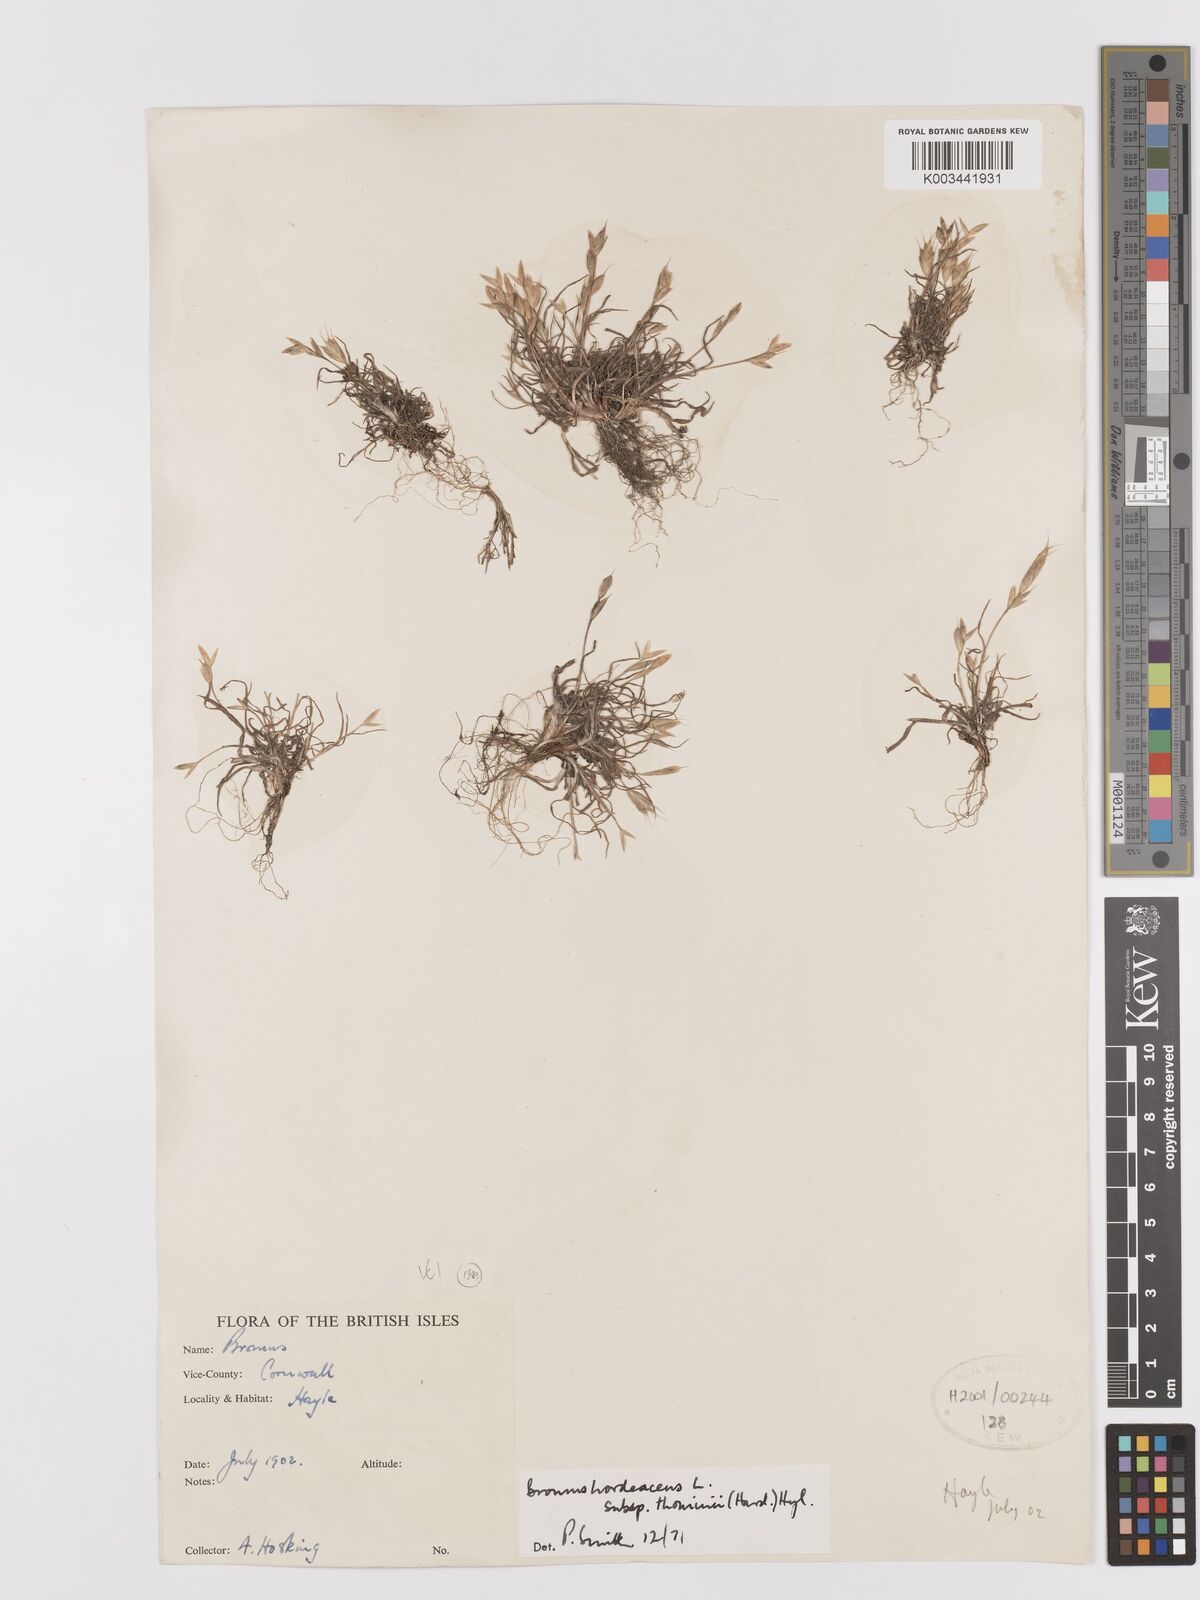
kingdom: Plantae
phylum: Tracheophyta
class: Liliopsida
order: Poales
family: Poaceae
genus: Bromus
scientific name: Bromus hordeaceus
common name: Soft brome
